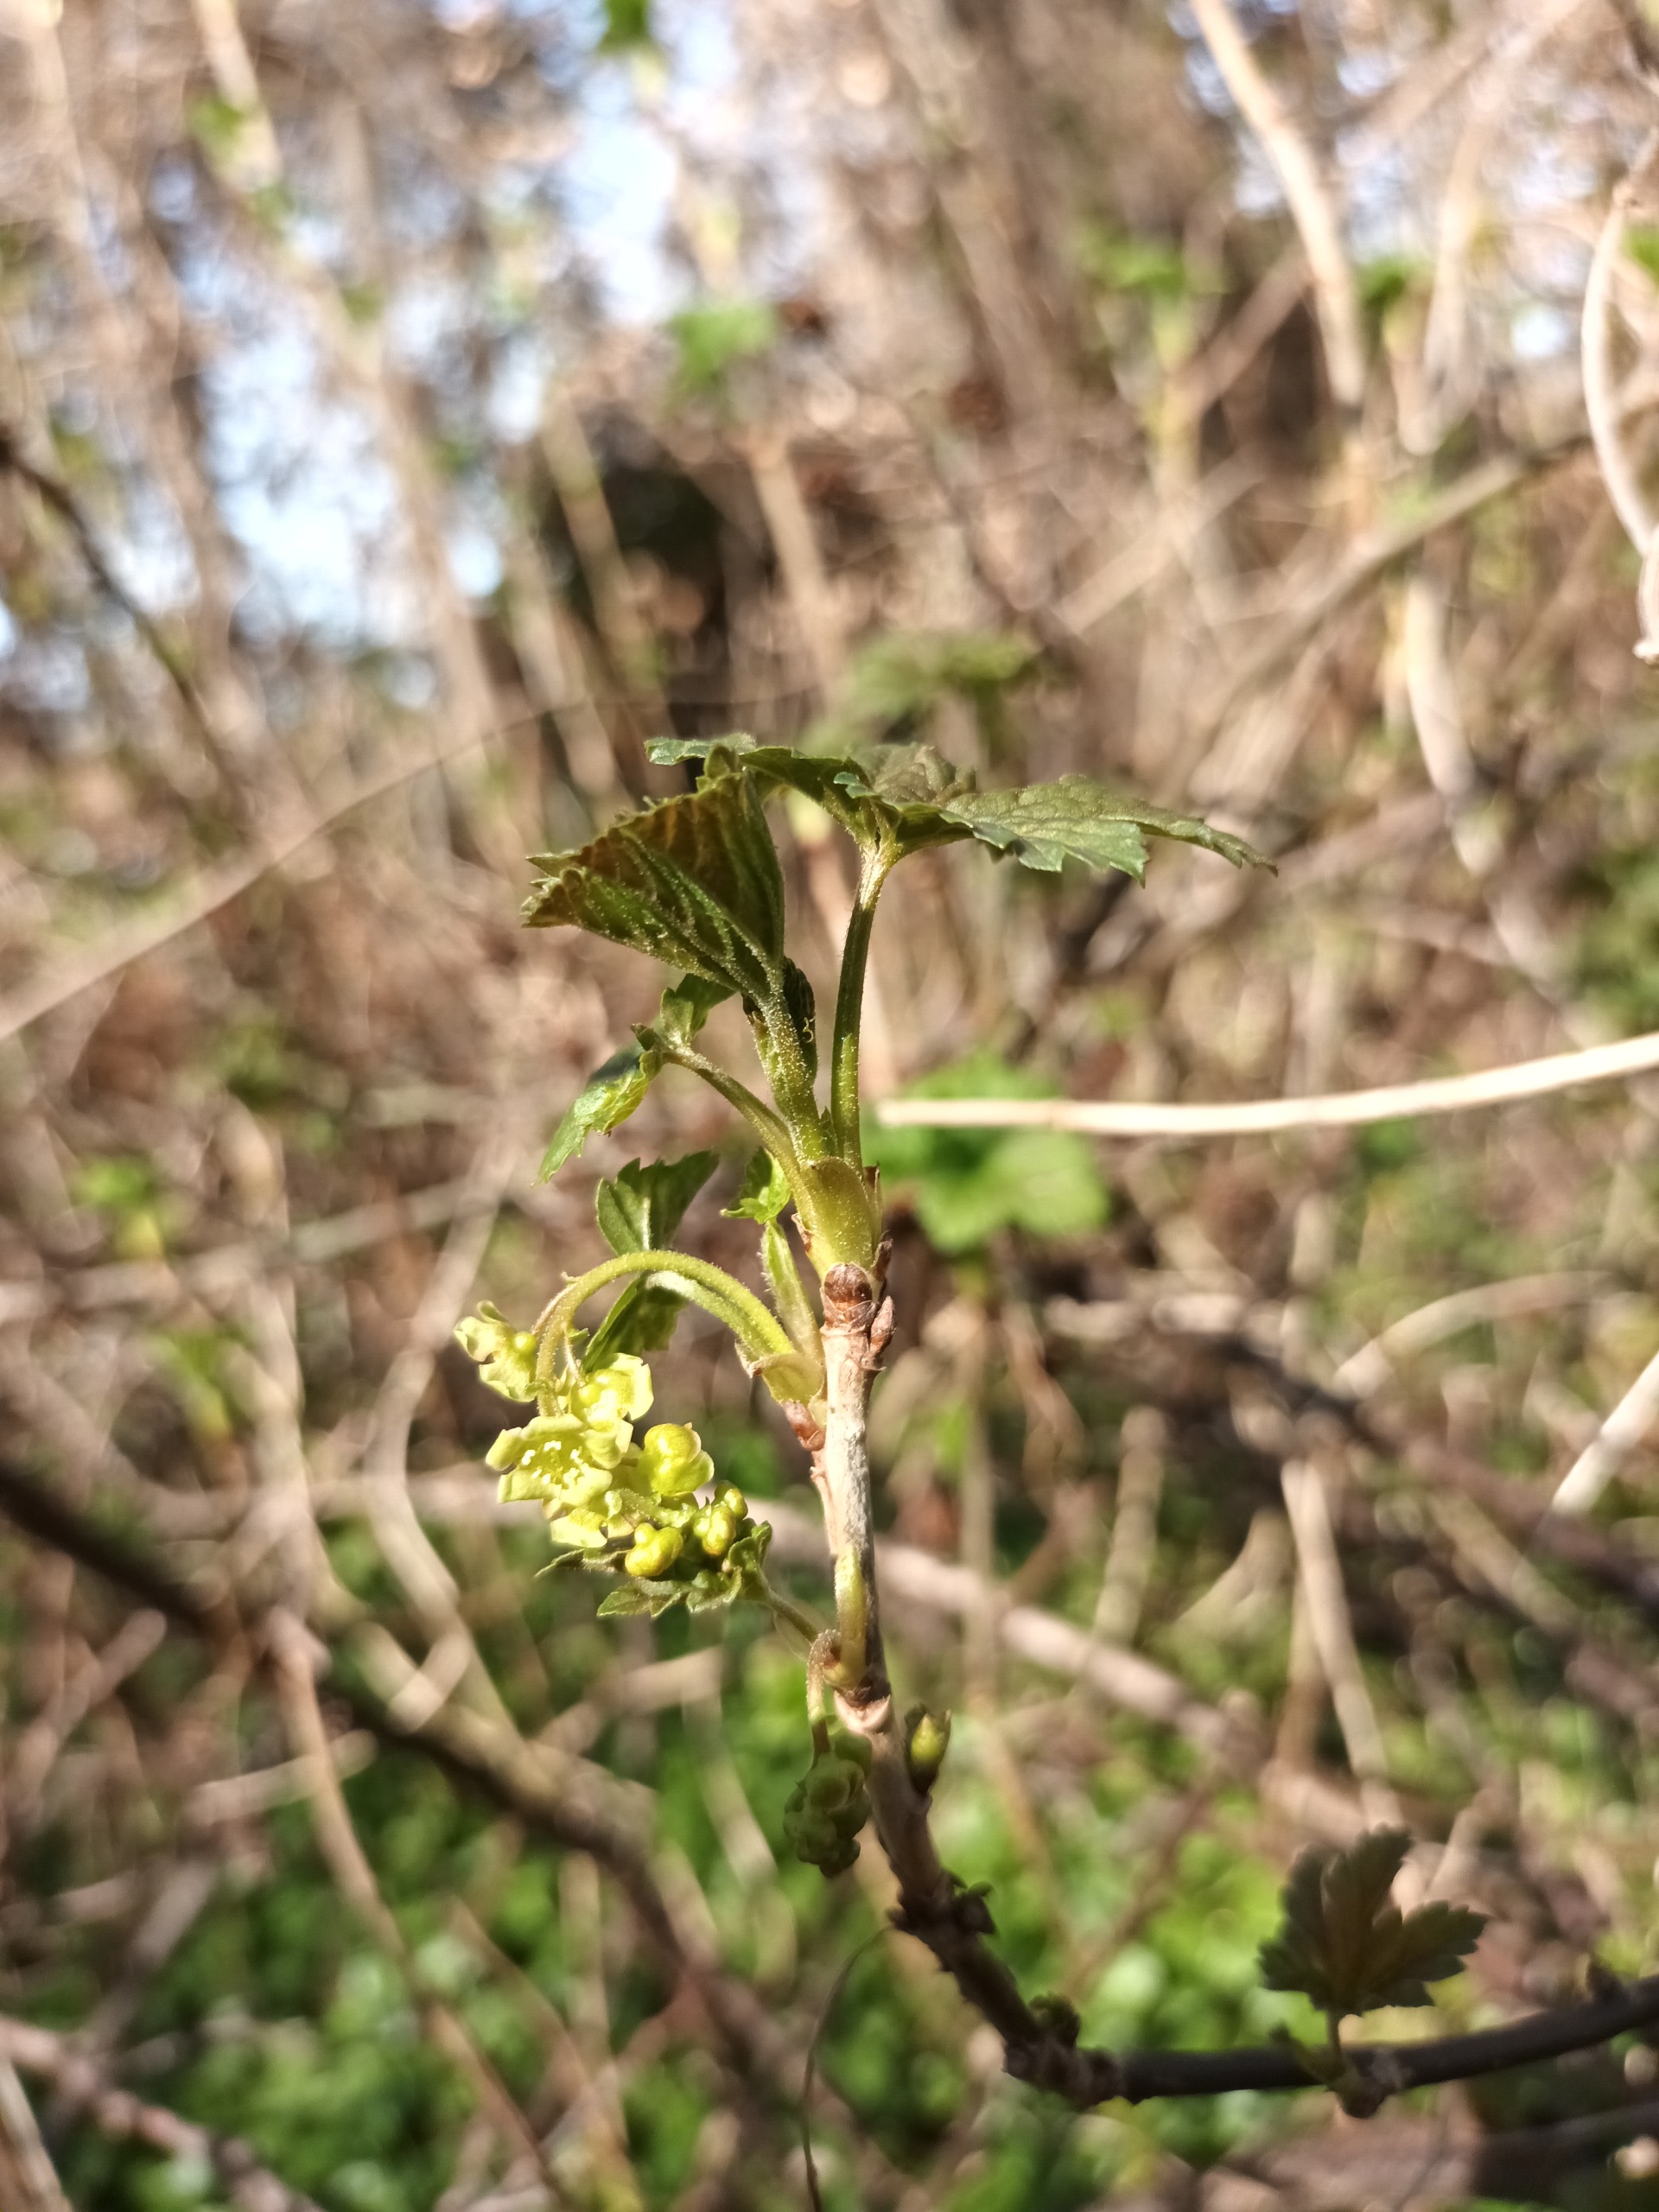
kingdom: Plantae
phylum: Tracheophyta
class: Magnoliopsida
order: Saxifragales
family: Grossulariaceae
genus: Ribes
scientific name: Ribes rubrum
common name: Have-ribs
